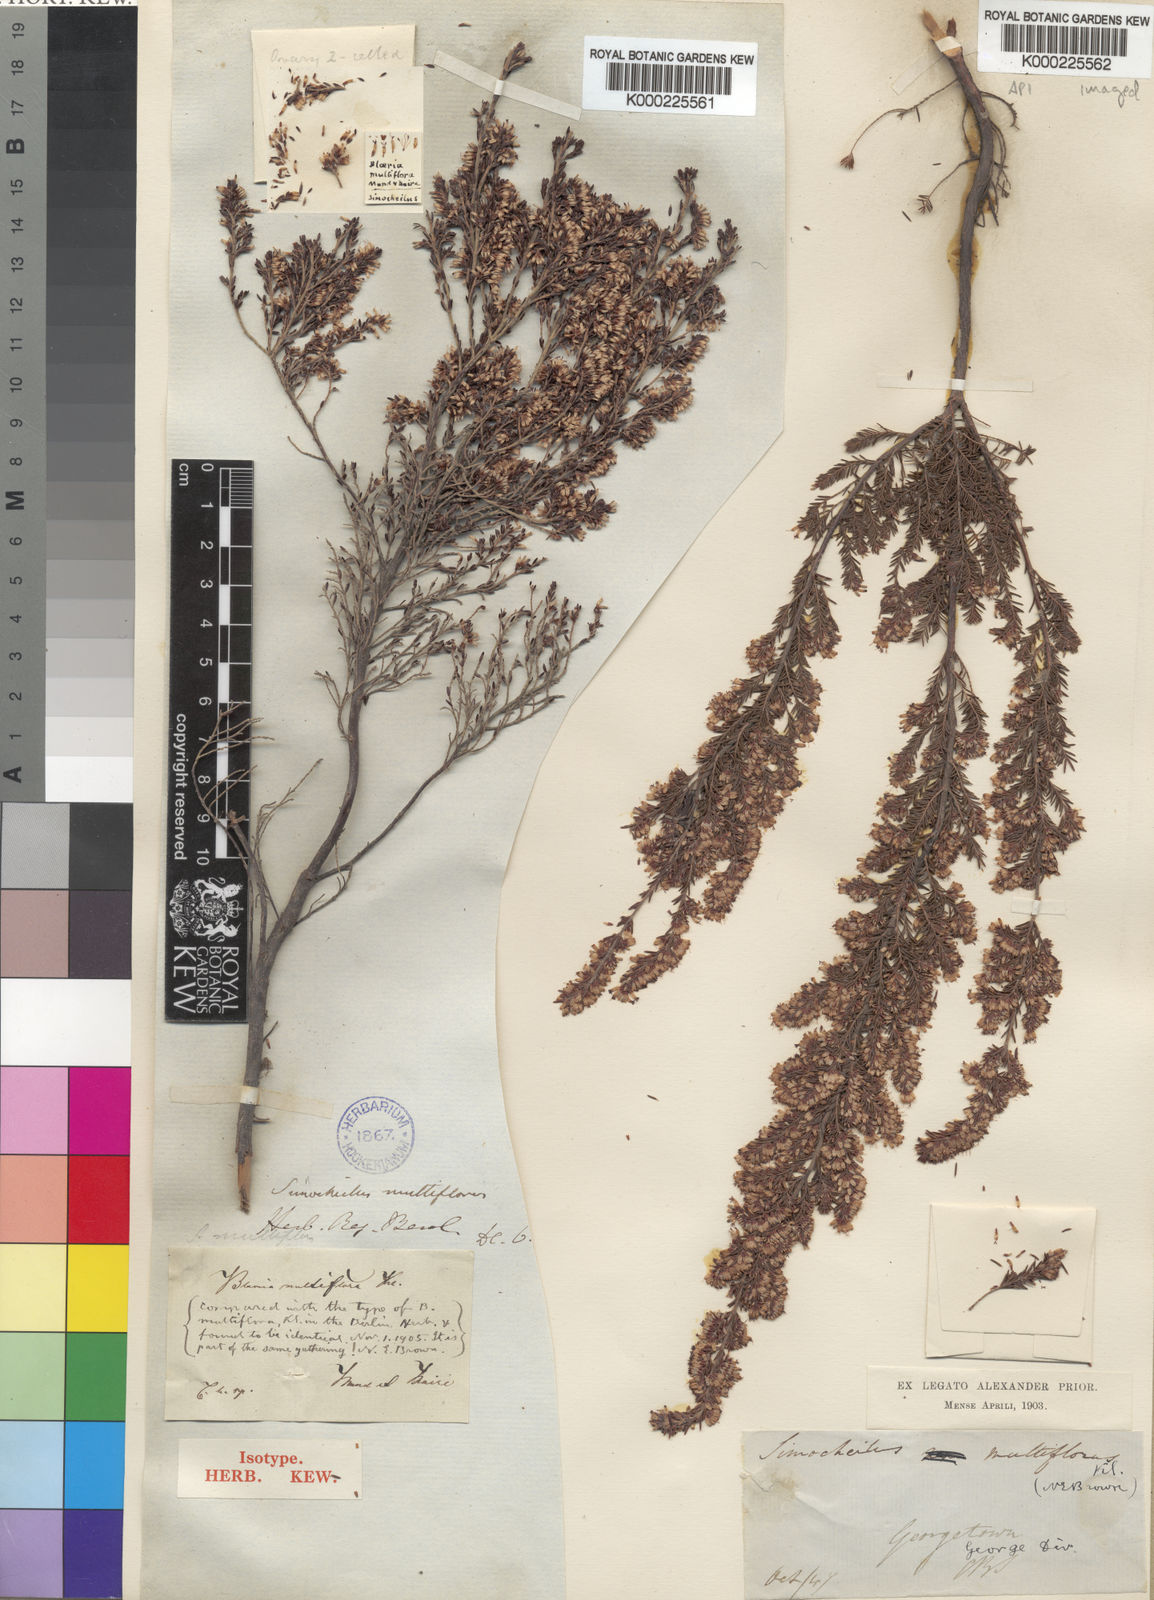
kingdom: Plantae
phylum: Tracheophyta
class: Magnoliopsida
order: Ericales
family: Ericaceae
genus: Erica
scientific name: Erica uberiflora
